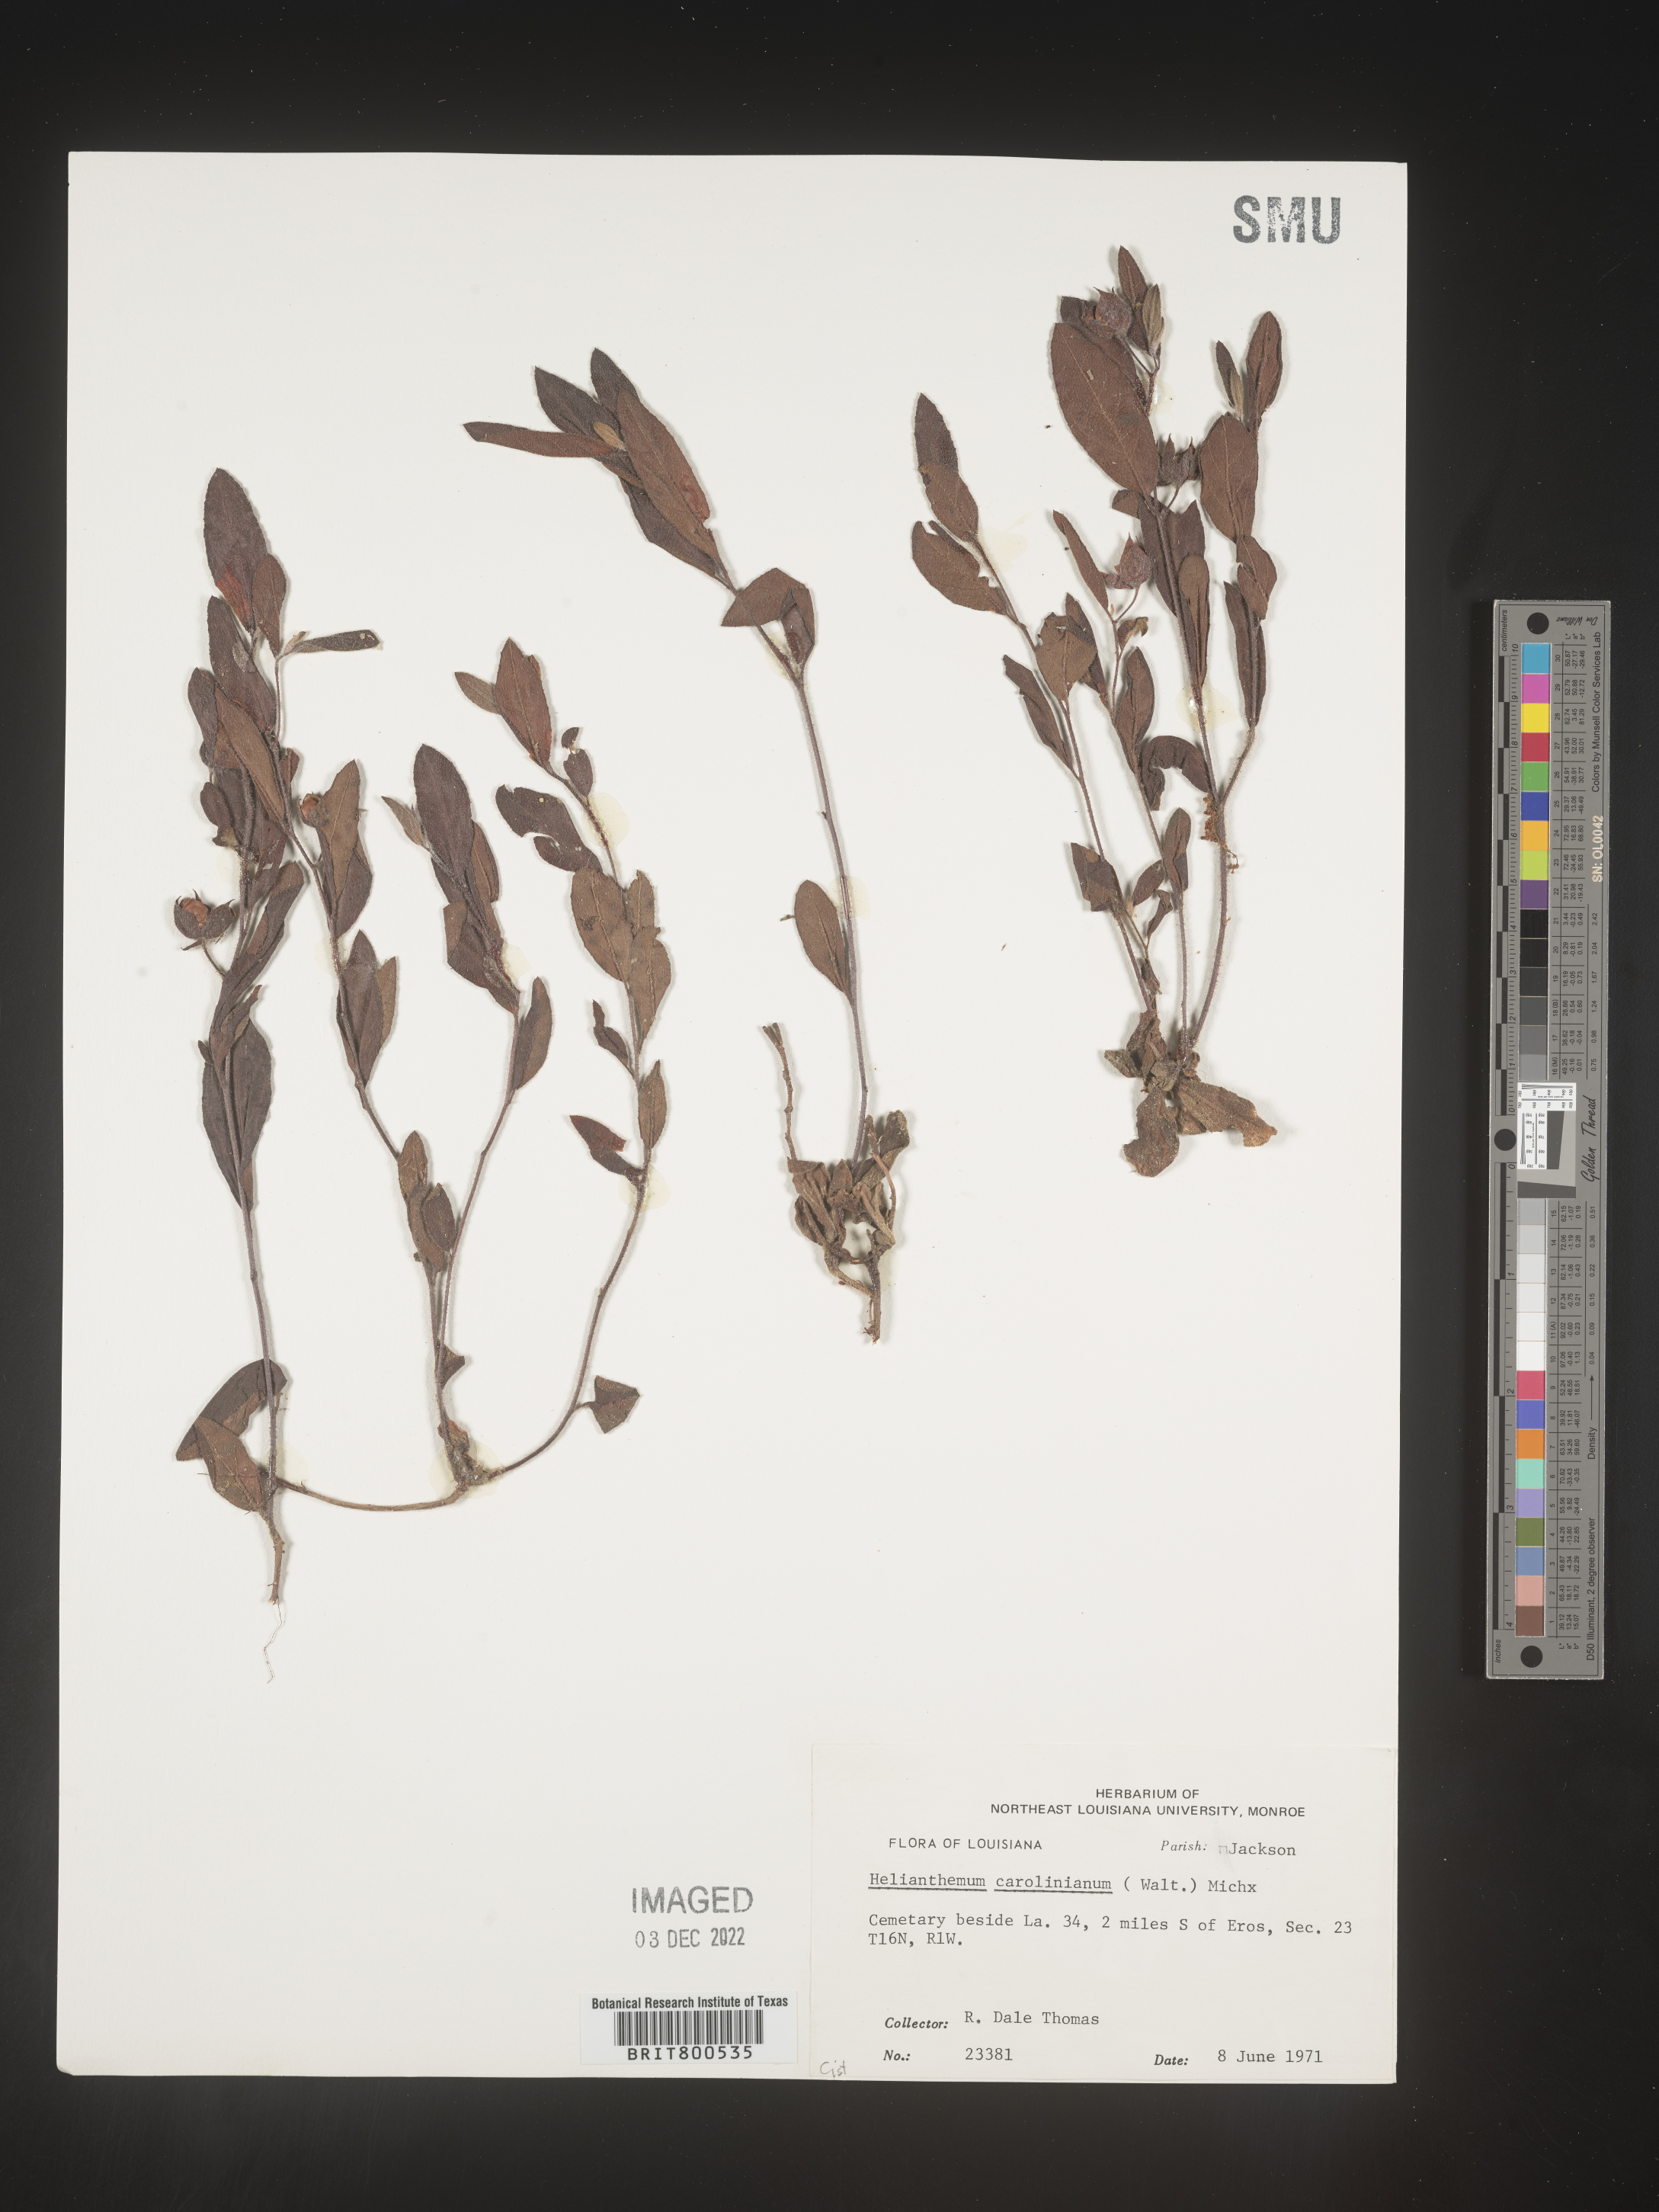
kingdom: Plantae
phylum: Tracheophyta
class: Magnoliopsida
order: Malvales
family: Cistaceae
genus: Crocanthemum
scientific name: Crocanthemum carolinianum
